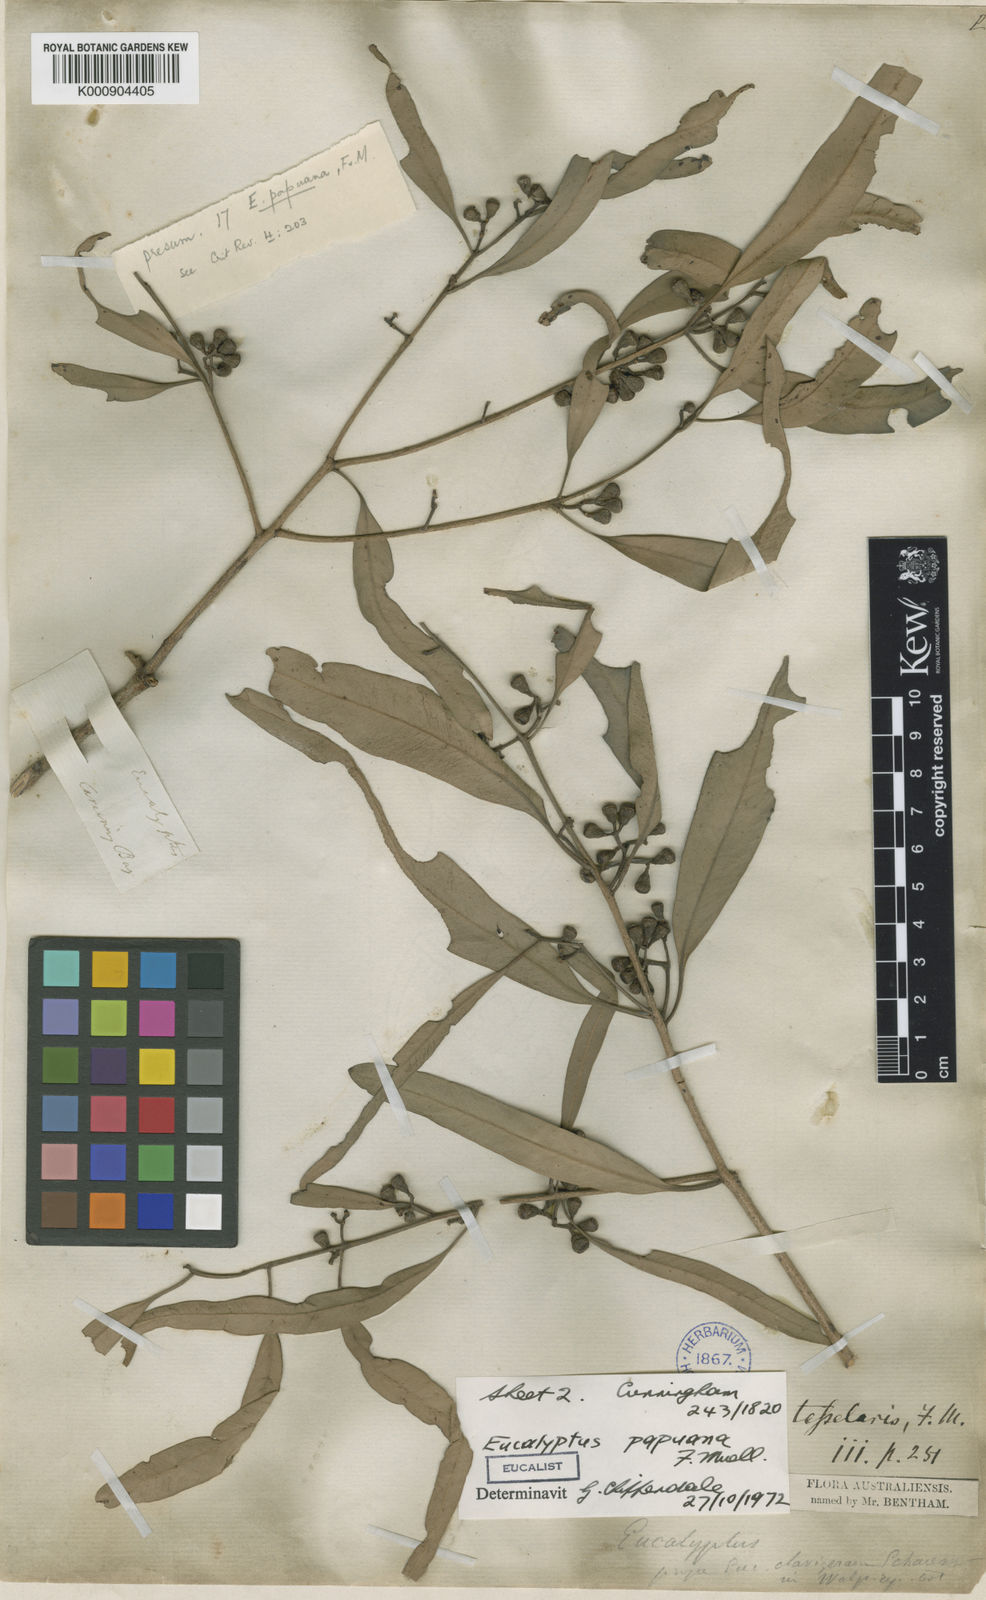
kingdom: Plantae
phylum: Tracheophyta
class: Magnoliopsida
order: Myrtales
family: Myrtaceae
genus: Corymbia
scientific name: Corymbia clavigera
